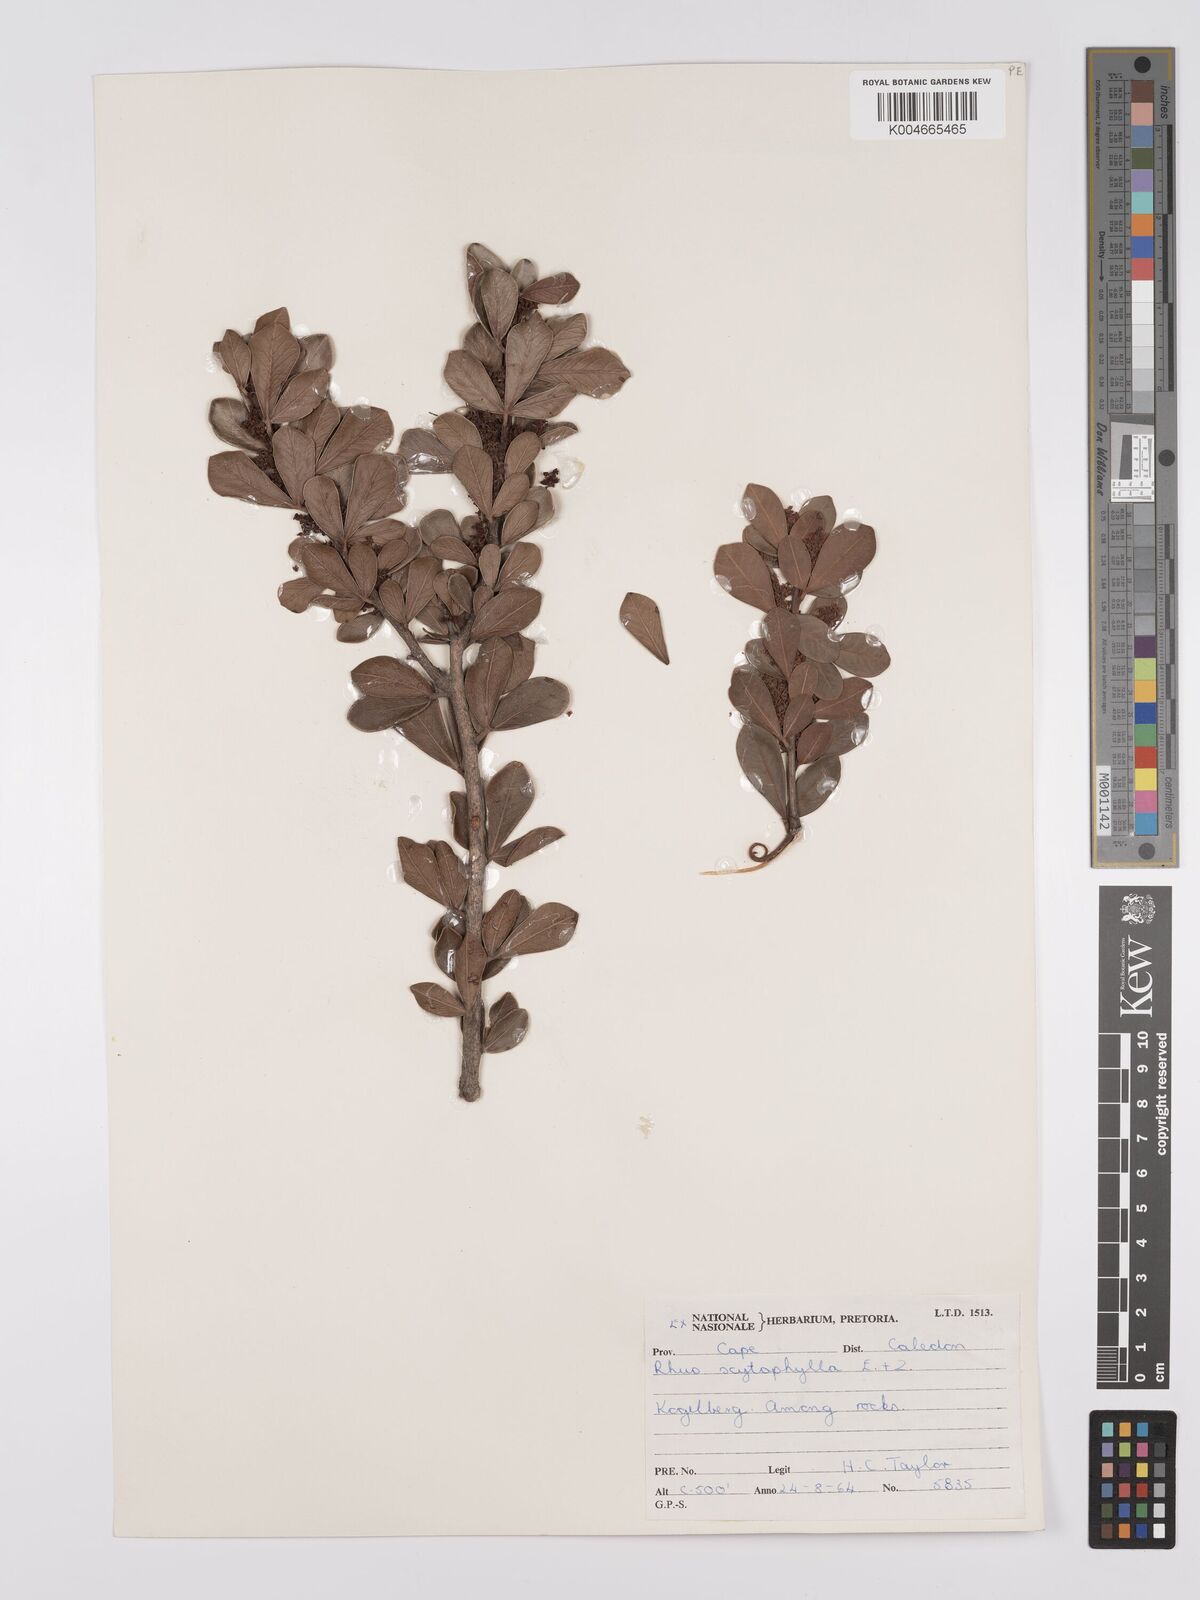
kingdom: Plantae
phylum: Tracheophyta
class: Magnoliopsida
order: Sapindales
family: Anacardiaceae
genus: Searsia
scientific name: Searsia scytophylla
